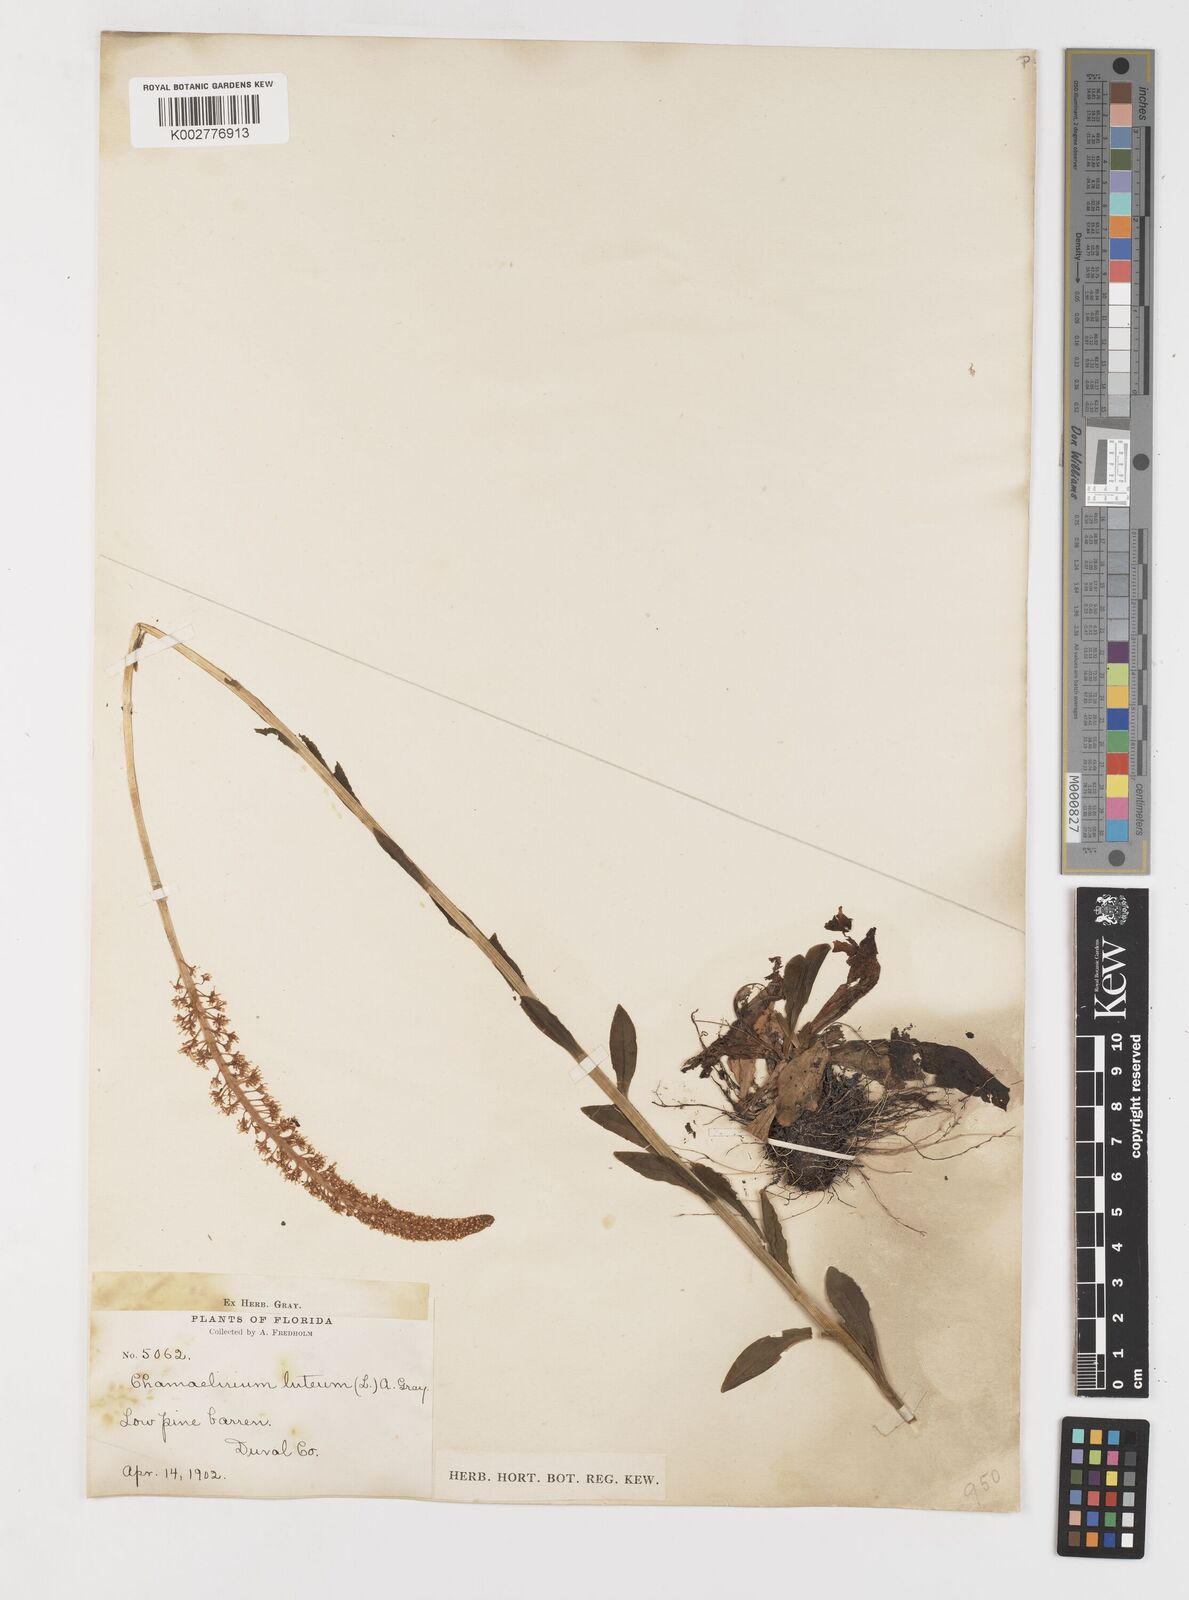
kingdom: Plantae
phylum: Tracheophyta
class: Liliopsida
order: Liliales
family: Melanthiaceae
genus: Chamaelirium
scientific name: Chamaelirium luteum
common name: Fairy-wand
